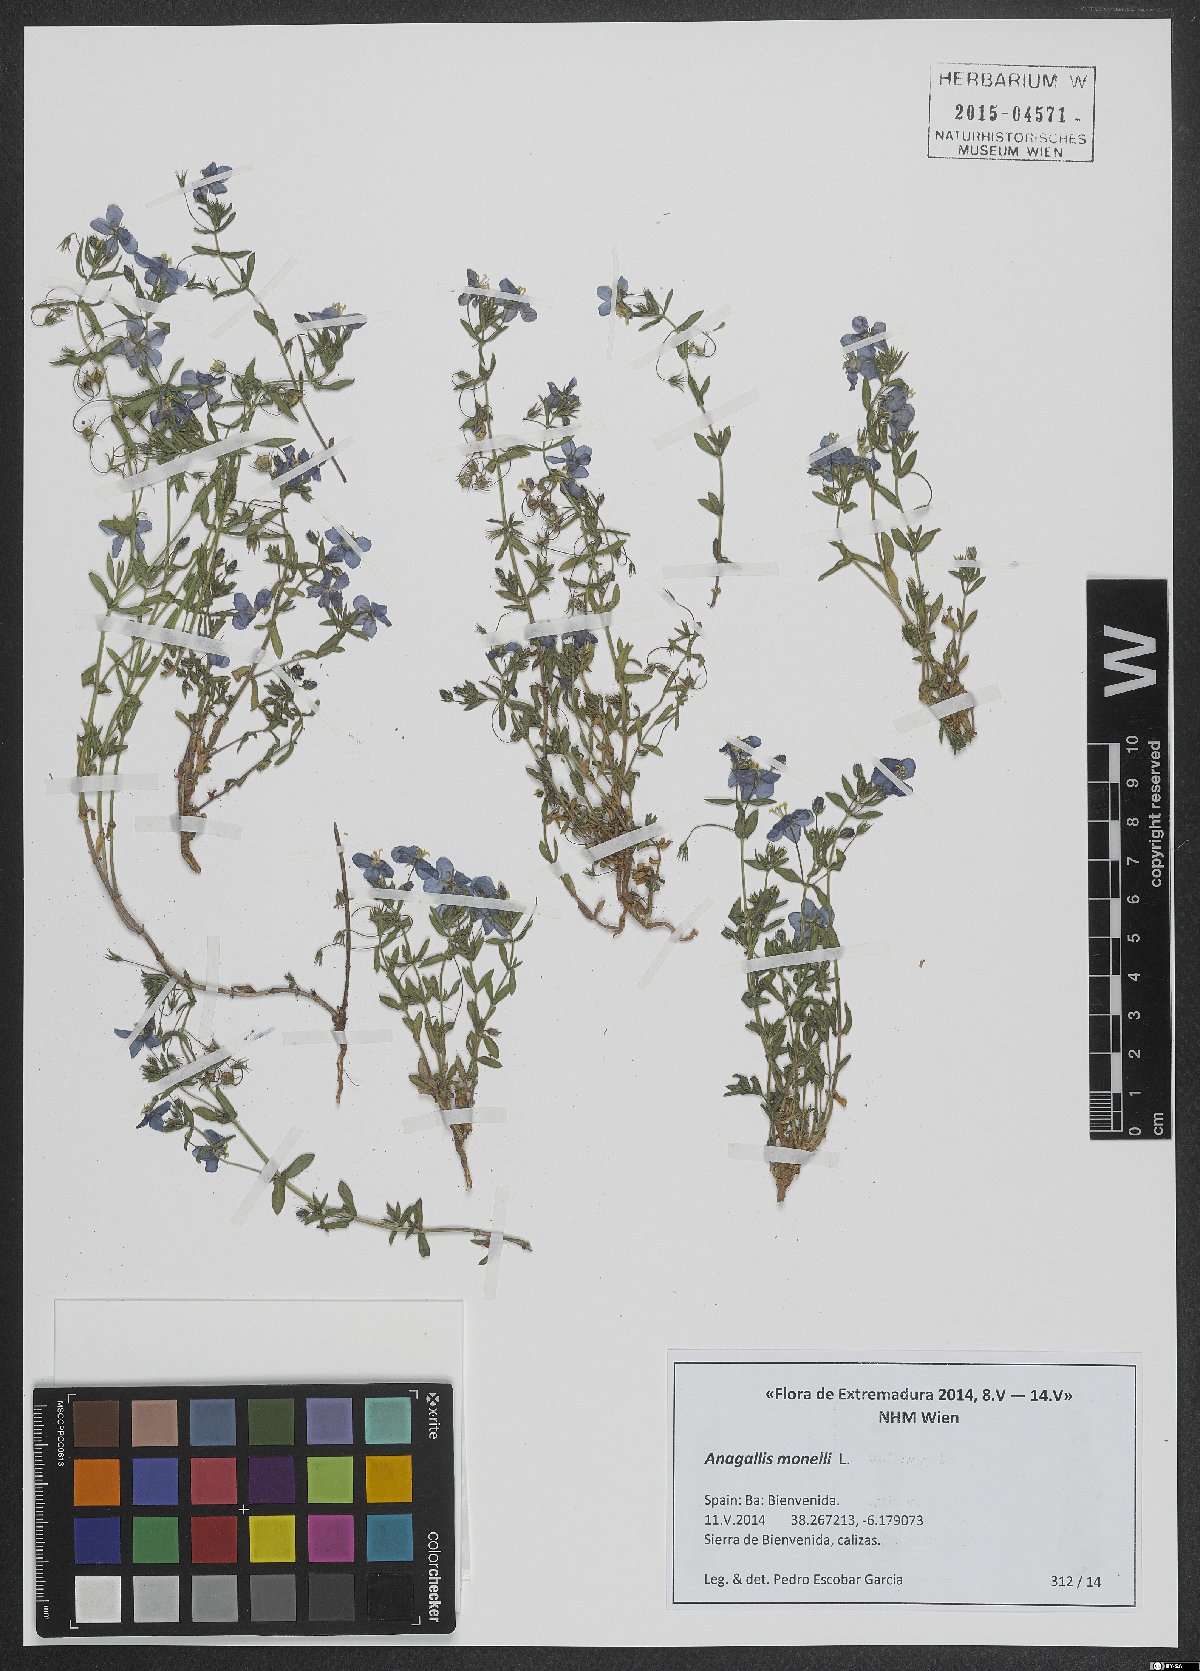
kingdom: Plantae
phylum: Tracheophyta
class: Magnoliopsida
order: Ericales
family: Primulaceae
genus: Lysimachia
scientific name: Lysimachia monelli
